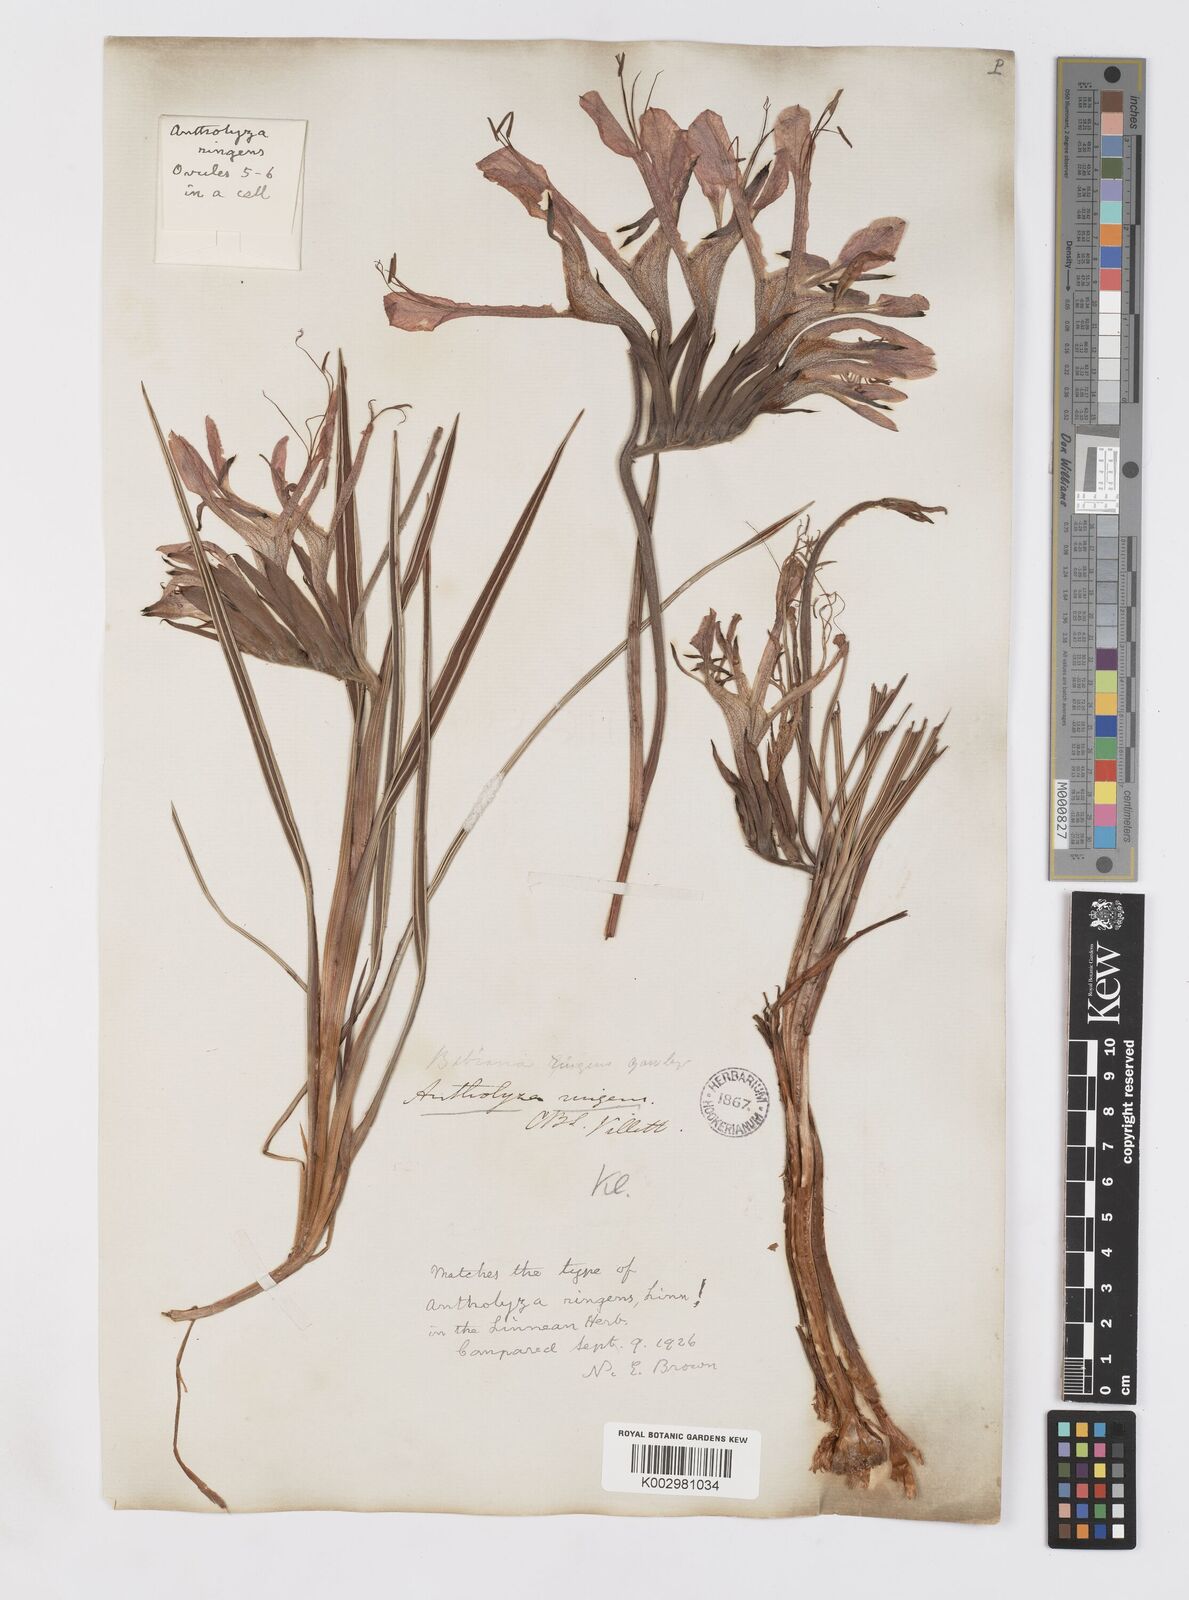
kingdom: Plantae
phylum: Tracheophyta
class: Liliopsida
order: Asparagales
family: Iridaceae
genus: Babiana
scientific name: Babiana ringens
